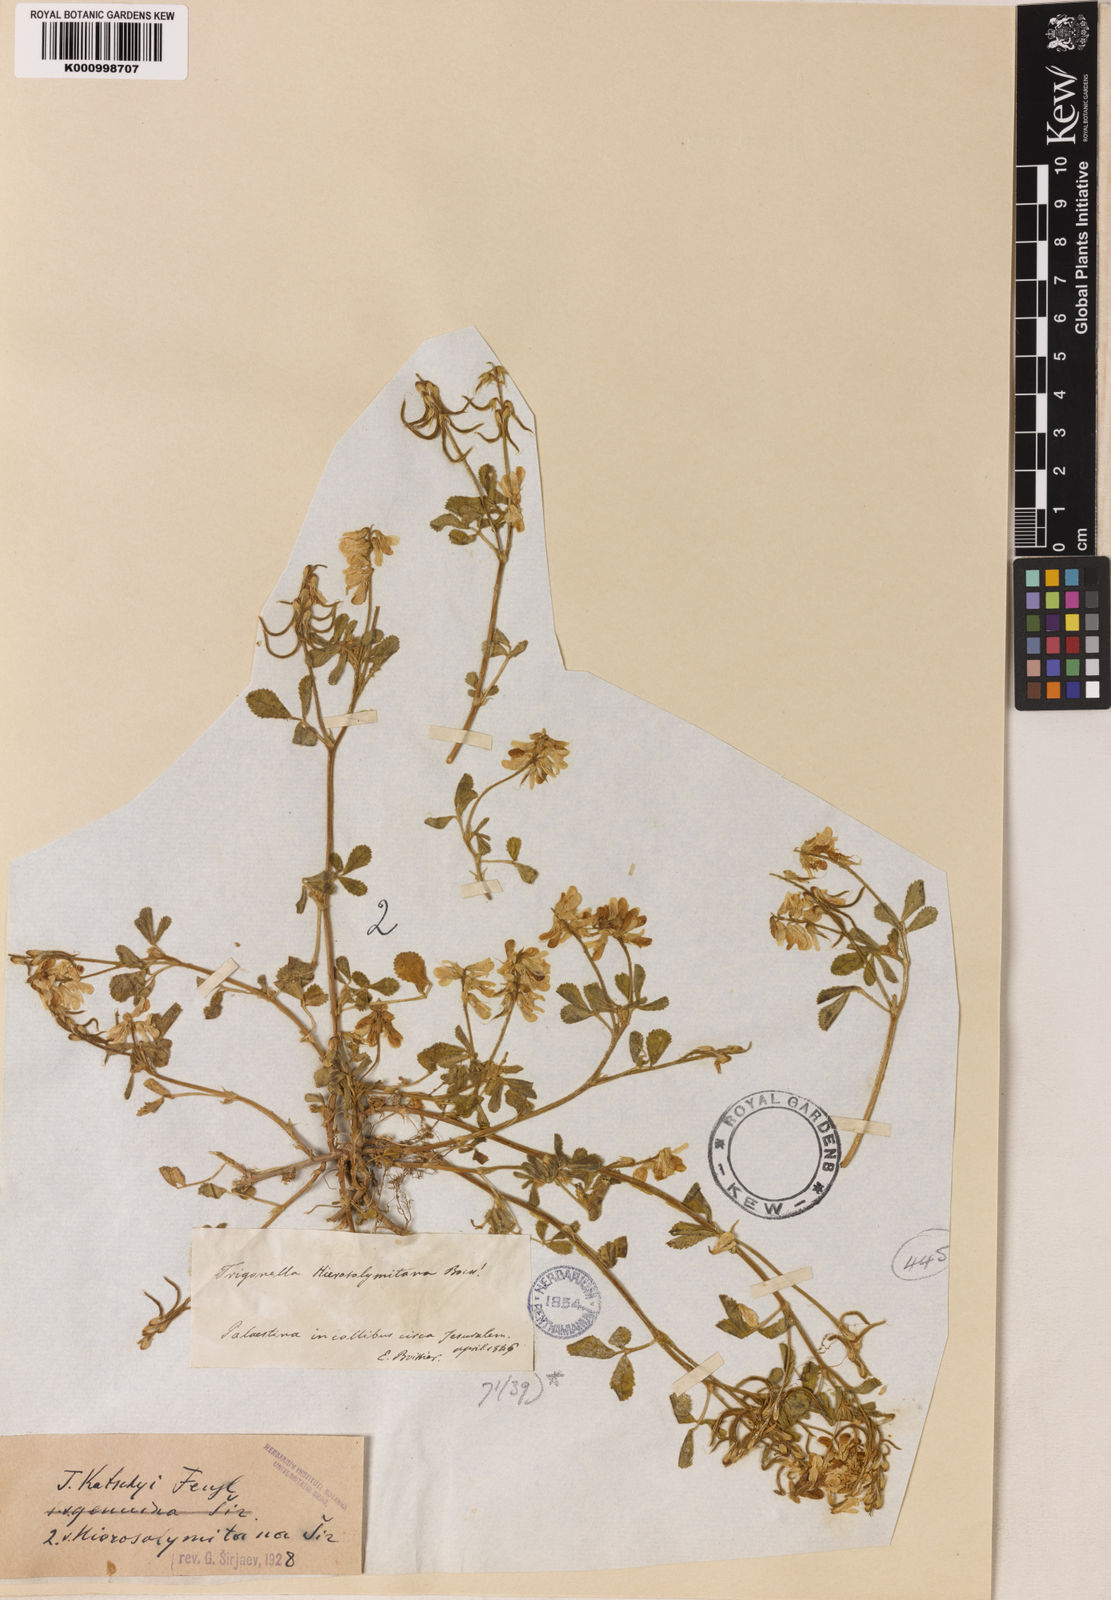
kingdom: Plantae
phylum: Tracheophyta
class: Magnoliopsida
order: Fabales
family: Fabaceae
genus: Trigonella
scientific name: Trigonella kotschyi
